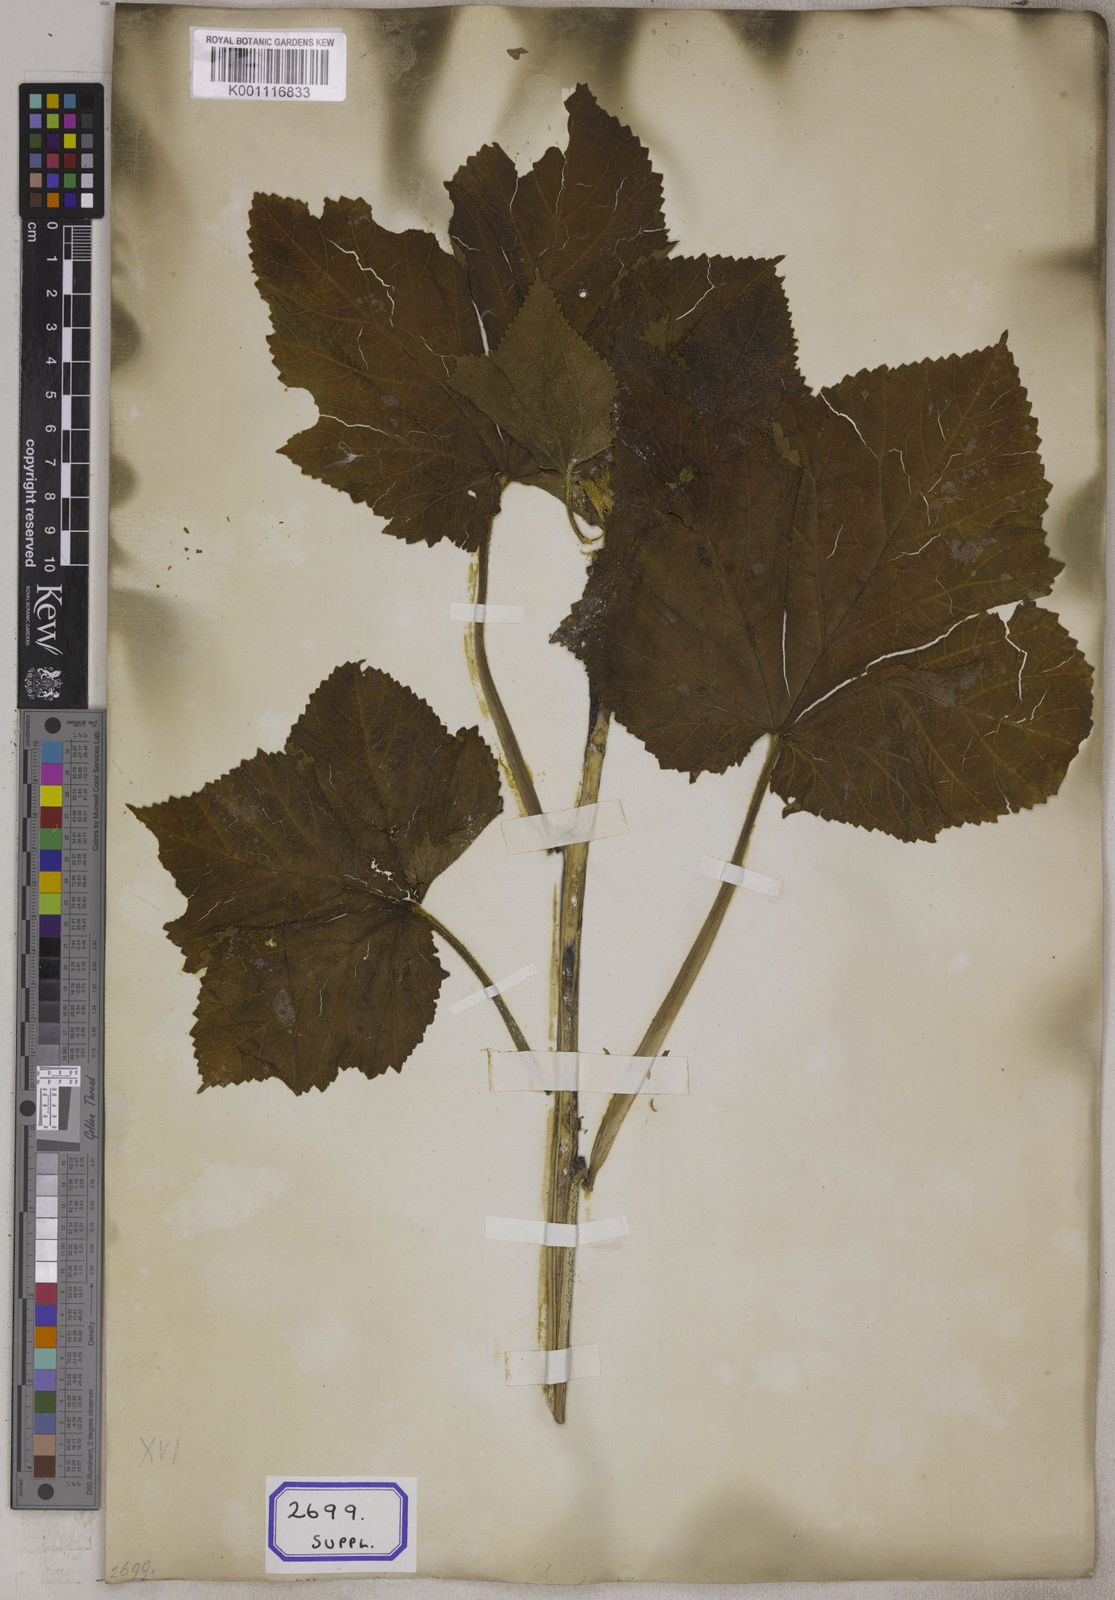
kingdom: Plantae
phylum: Tracheophyta
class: Magnoliopsida
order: Malvales
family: Malvaceae
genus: Abelmoschus
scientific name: Abelmoschus esculentus
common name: Okra
